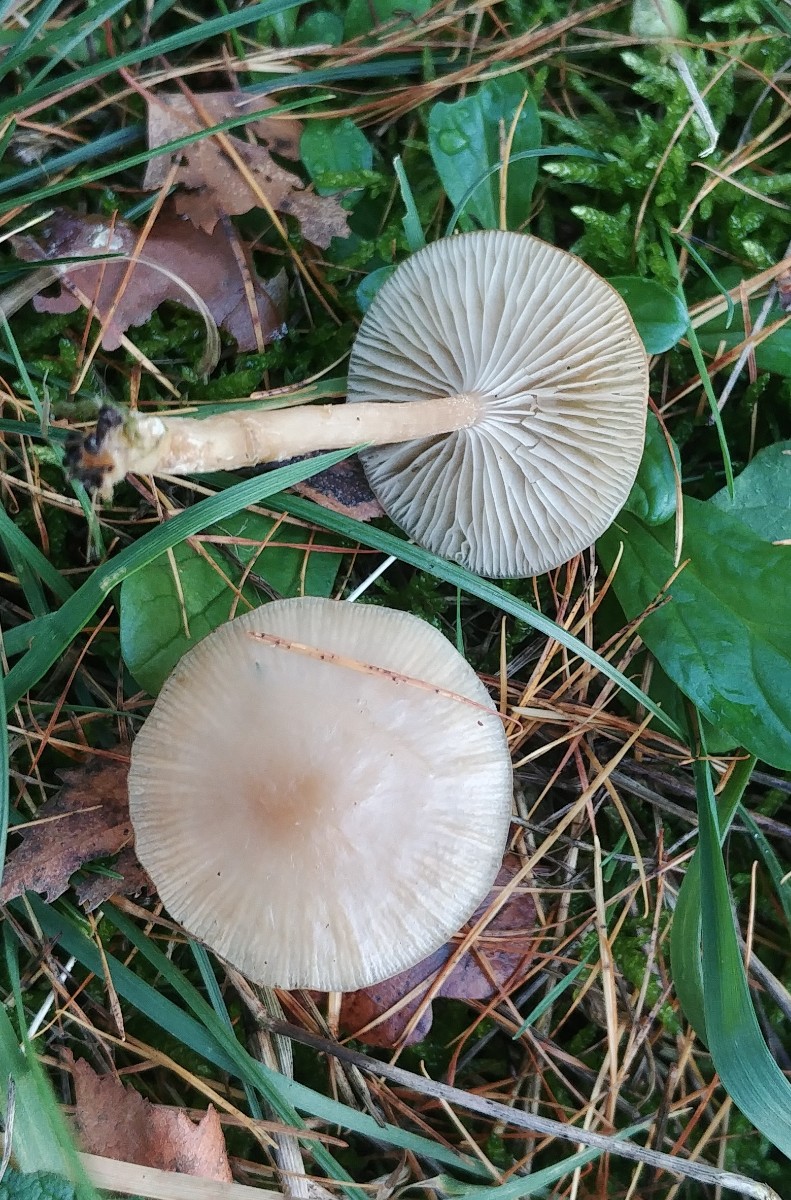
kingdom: Fungi
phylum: Basidiomycota
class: Agaricomycetes
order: Agaricales
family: Tricholomataceae
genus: Clitocybe
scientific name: Clitocybe fragrans
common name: vellugtende tragthat
